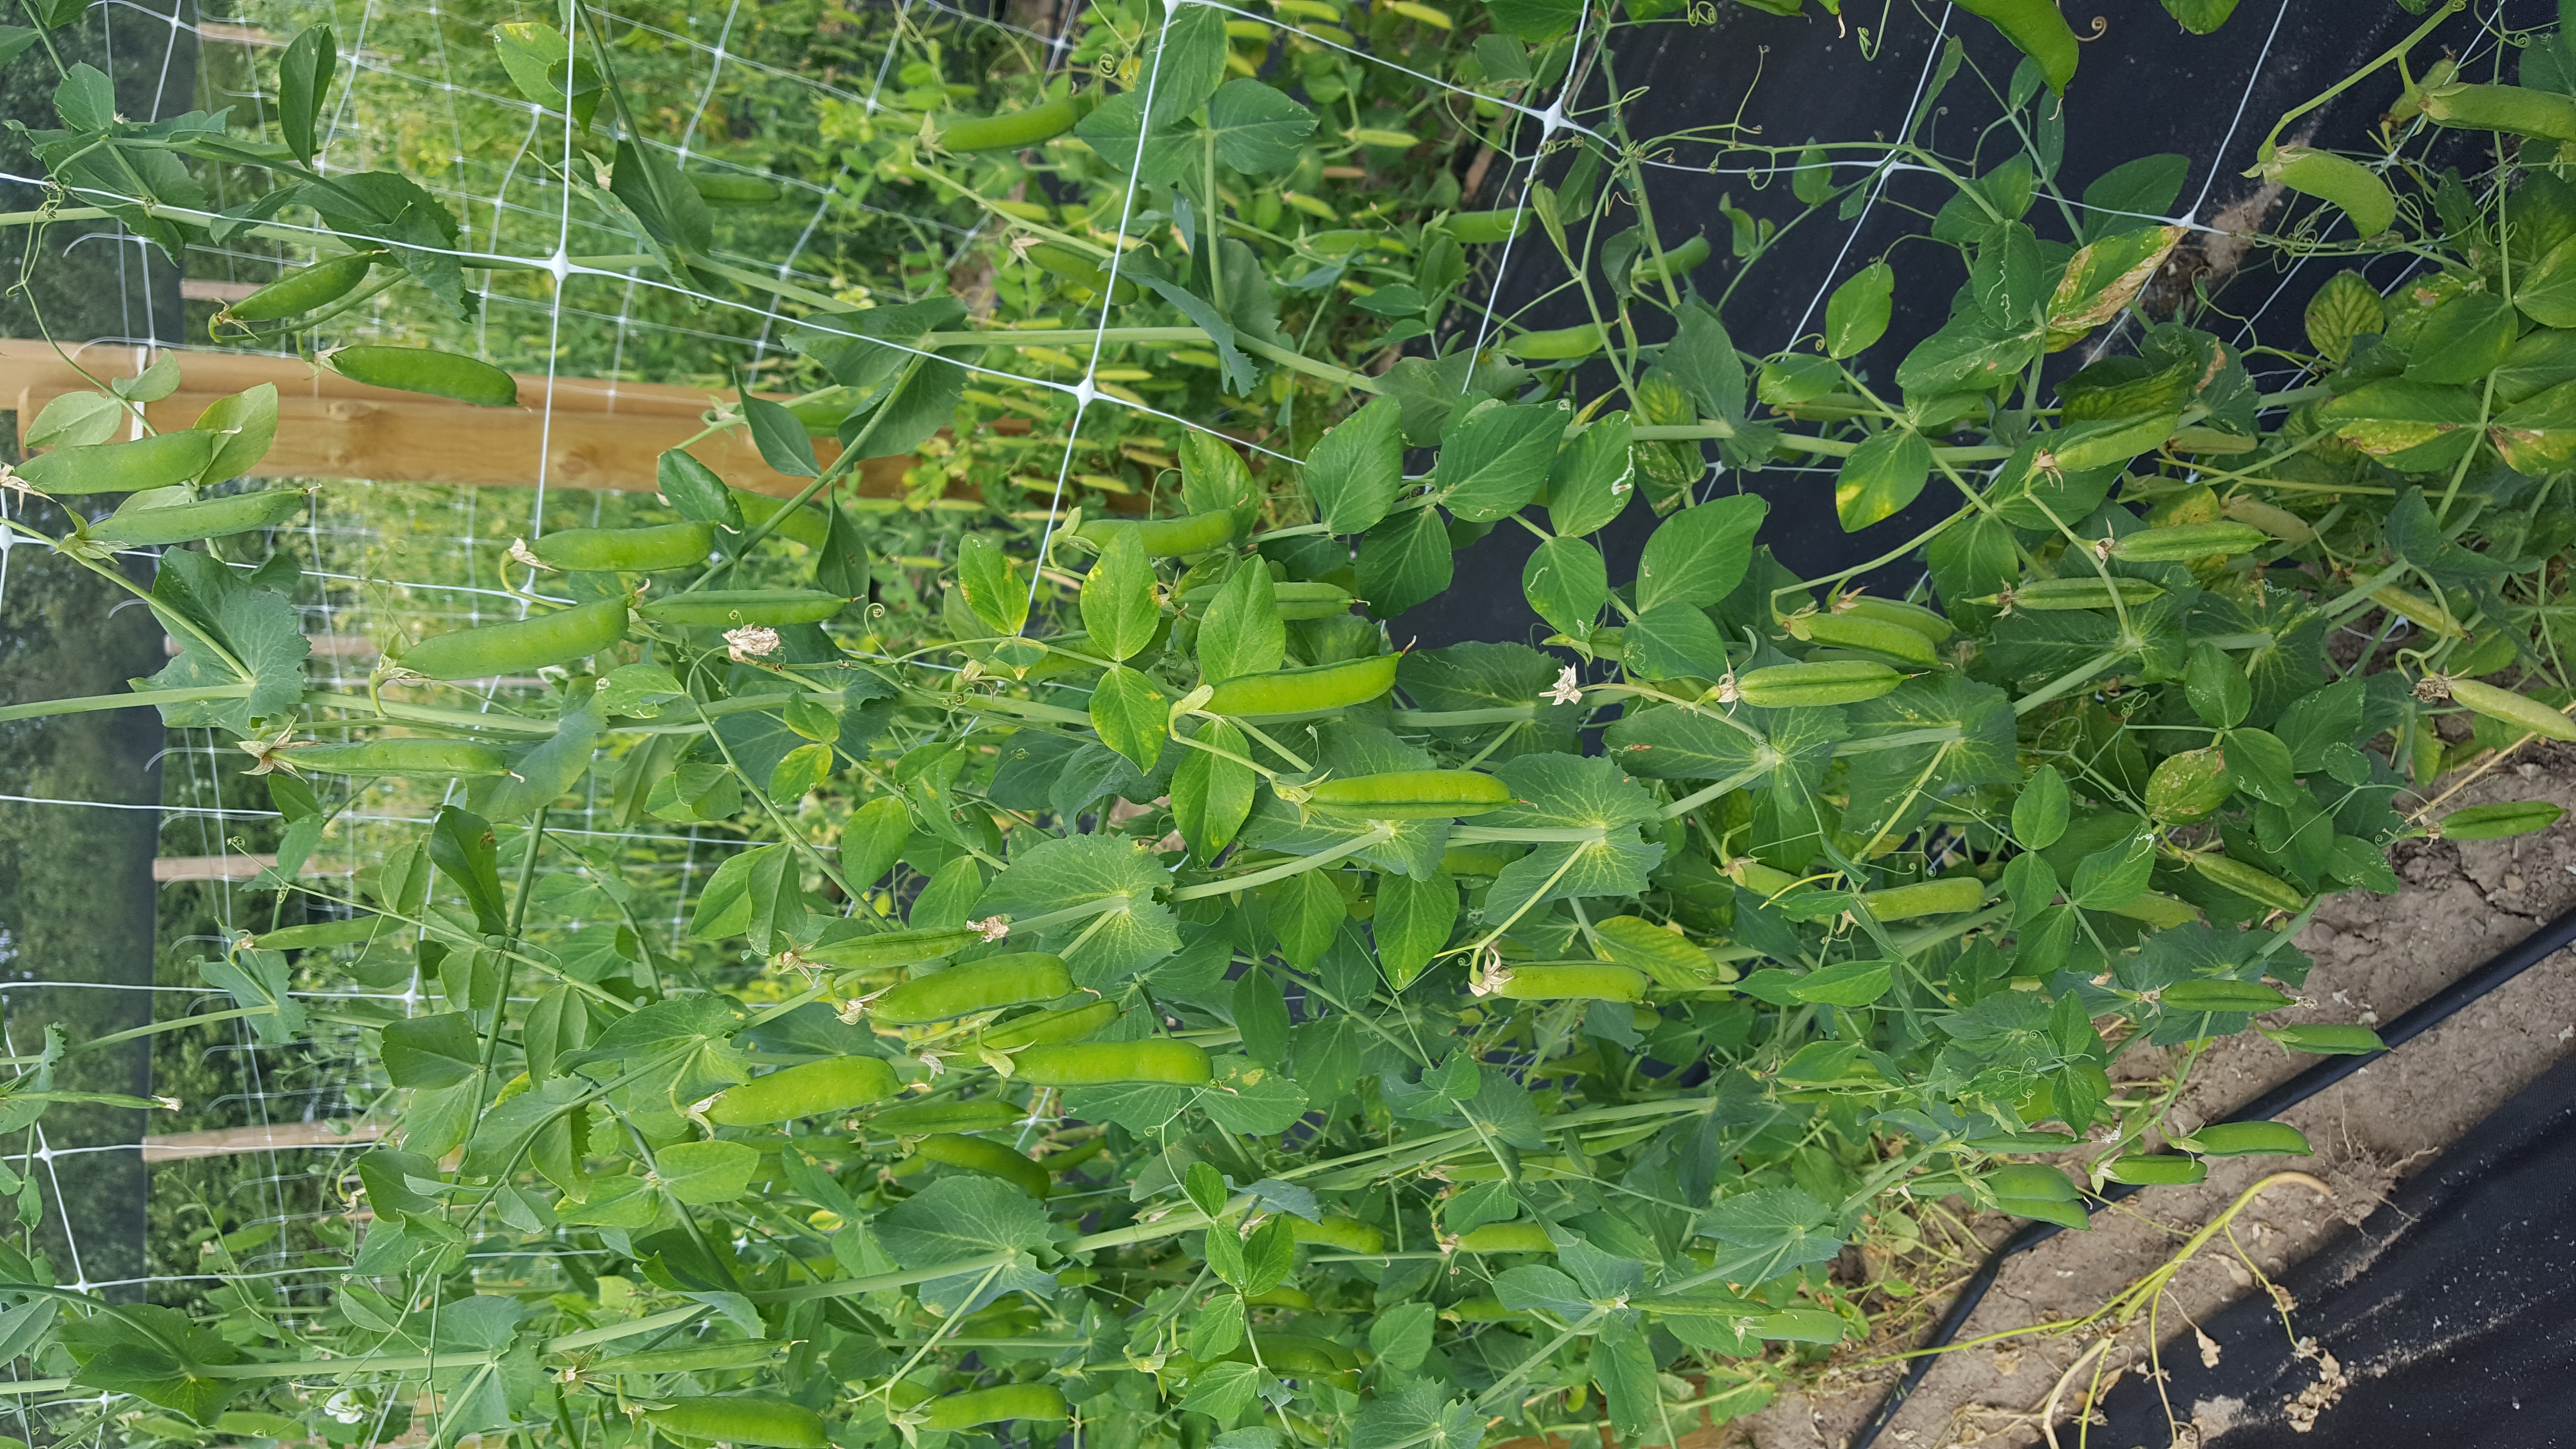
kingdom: Plantae
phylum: Tracheophyta
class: Magnoliopsida
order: Fabales
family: Fabaceae
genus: Lathyrus
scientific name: Lathyrus oleraceus
